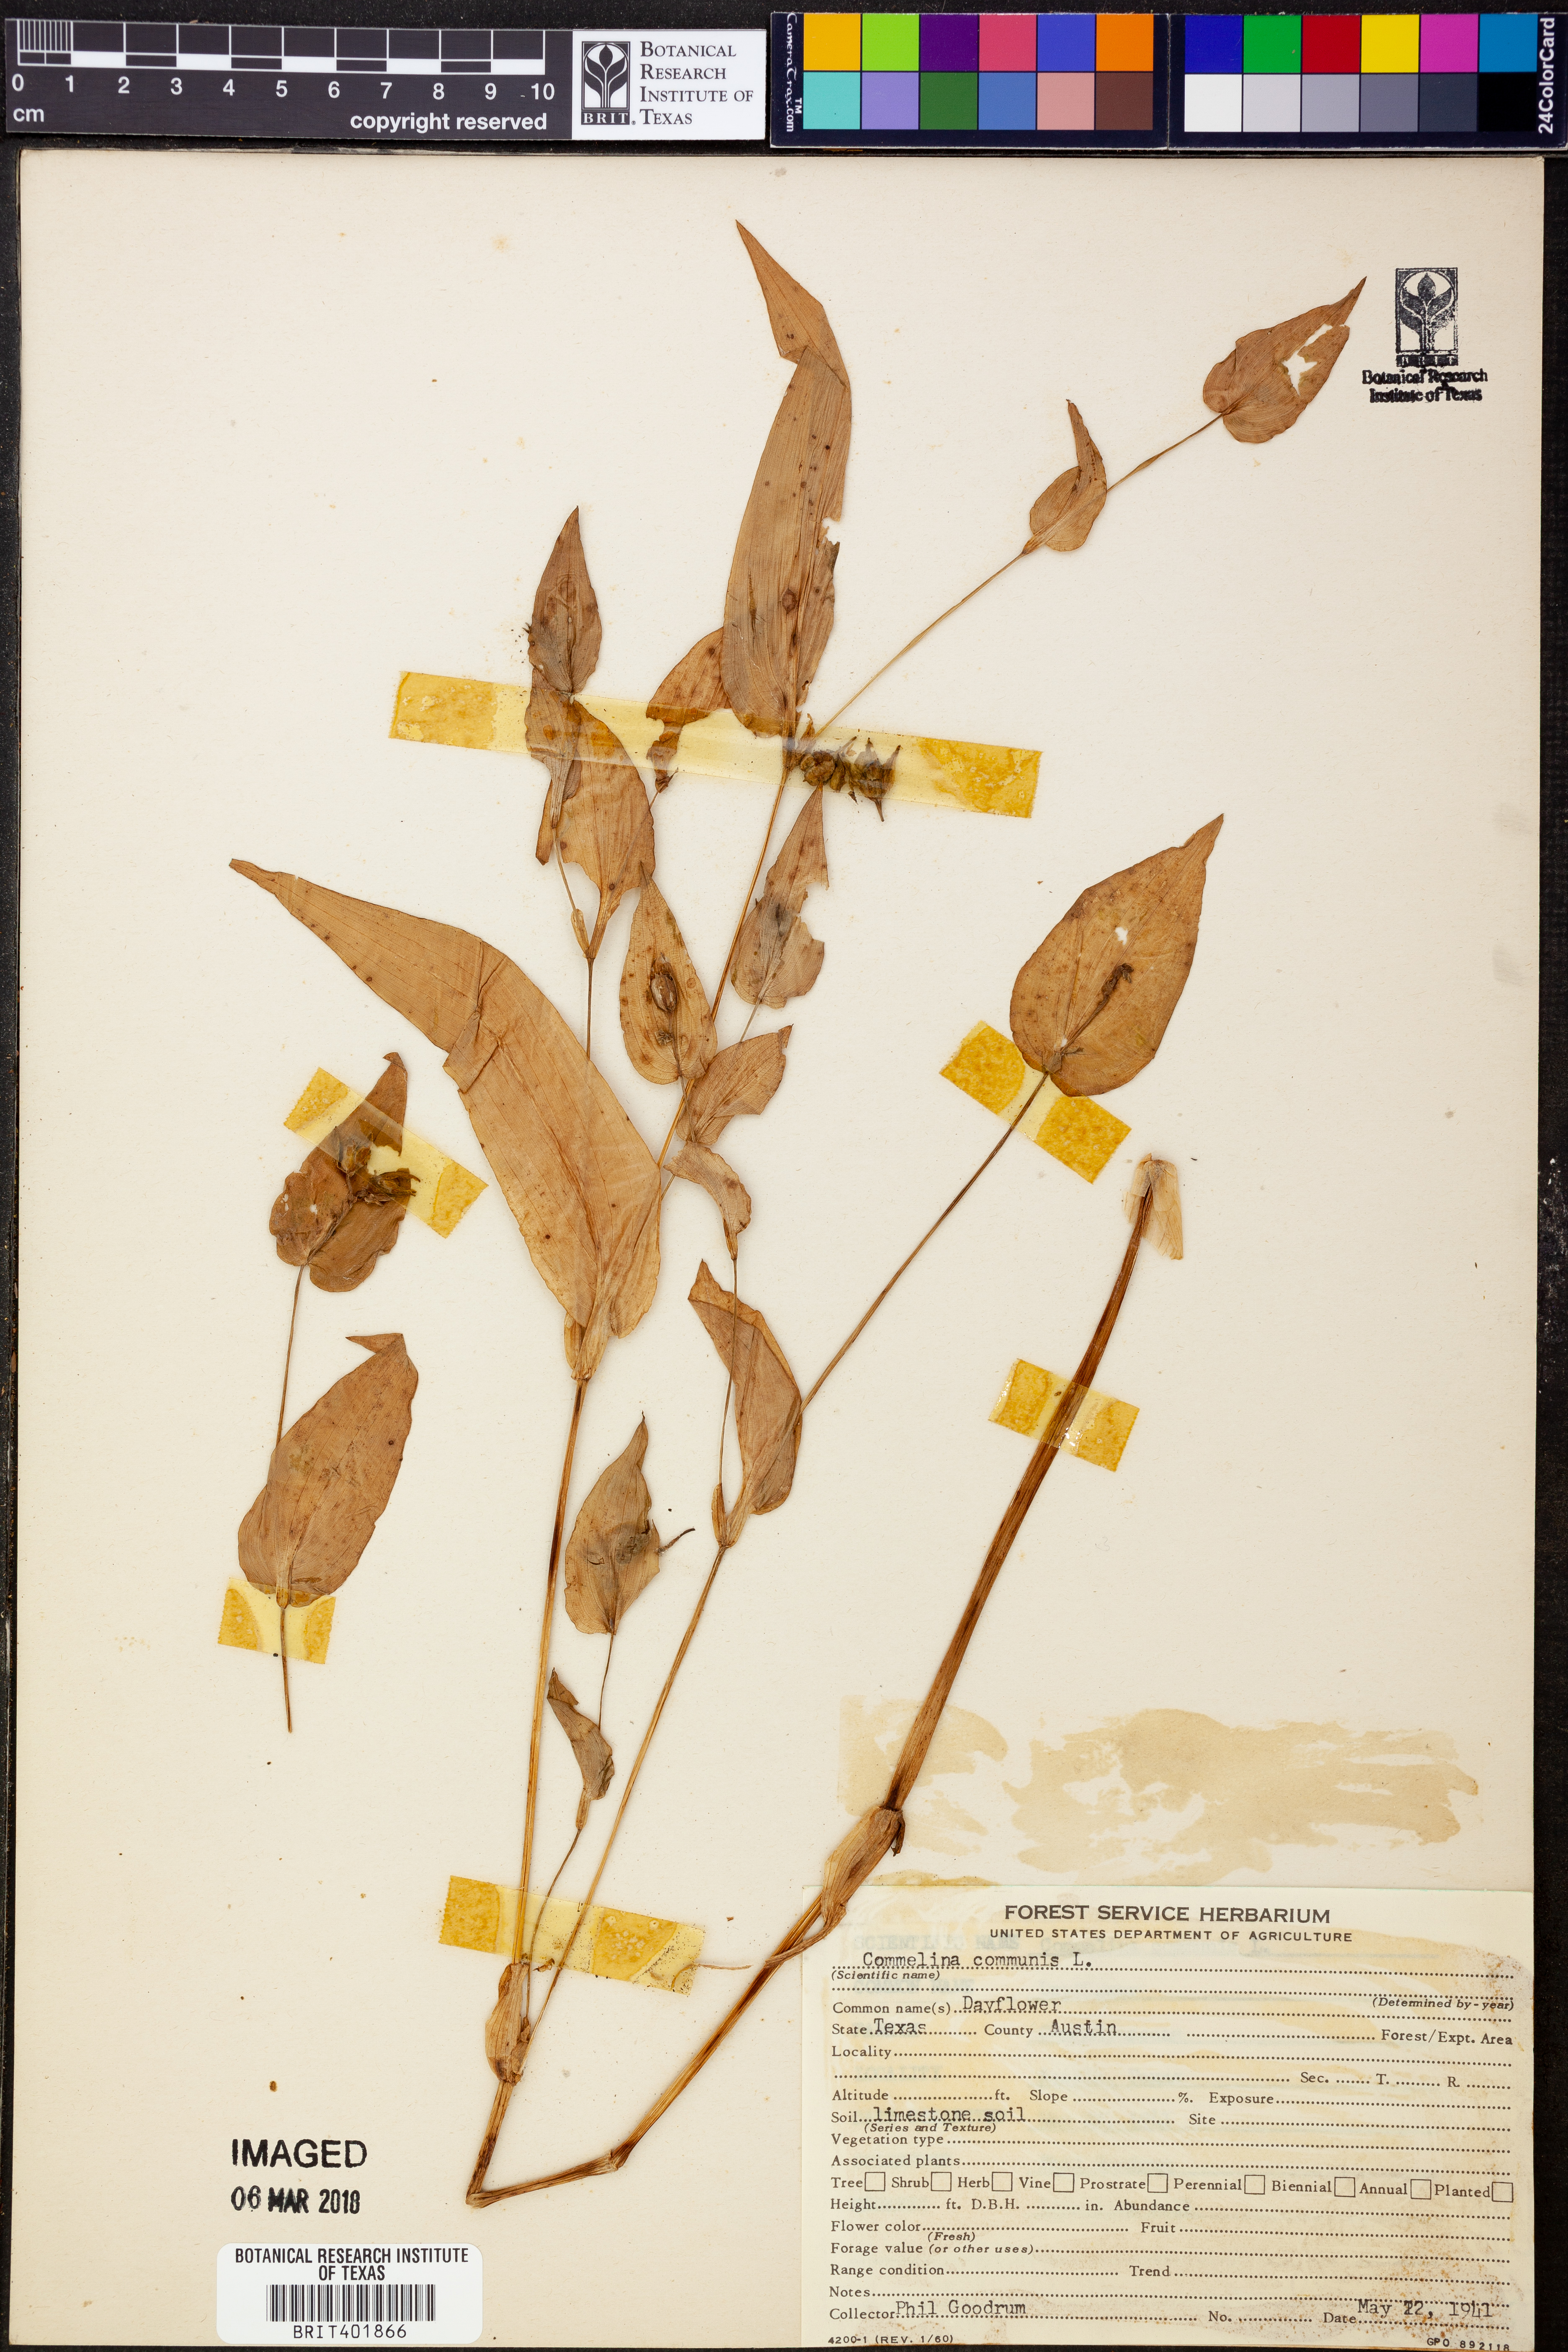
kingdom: Plantae
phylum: Tracheophyta
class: Liliopsida
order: Commelinales
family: Commelinaceae
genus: Commelina
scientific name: Commelina communis
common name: Asiatic dayflower
